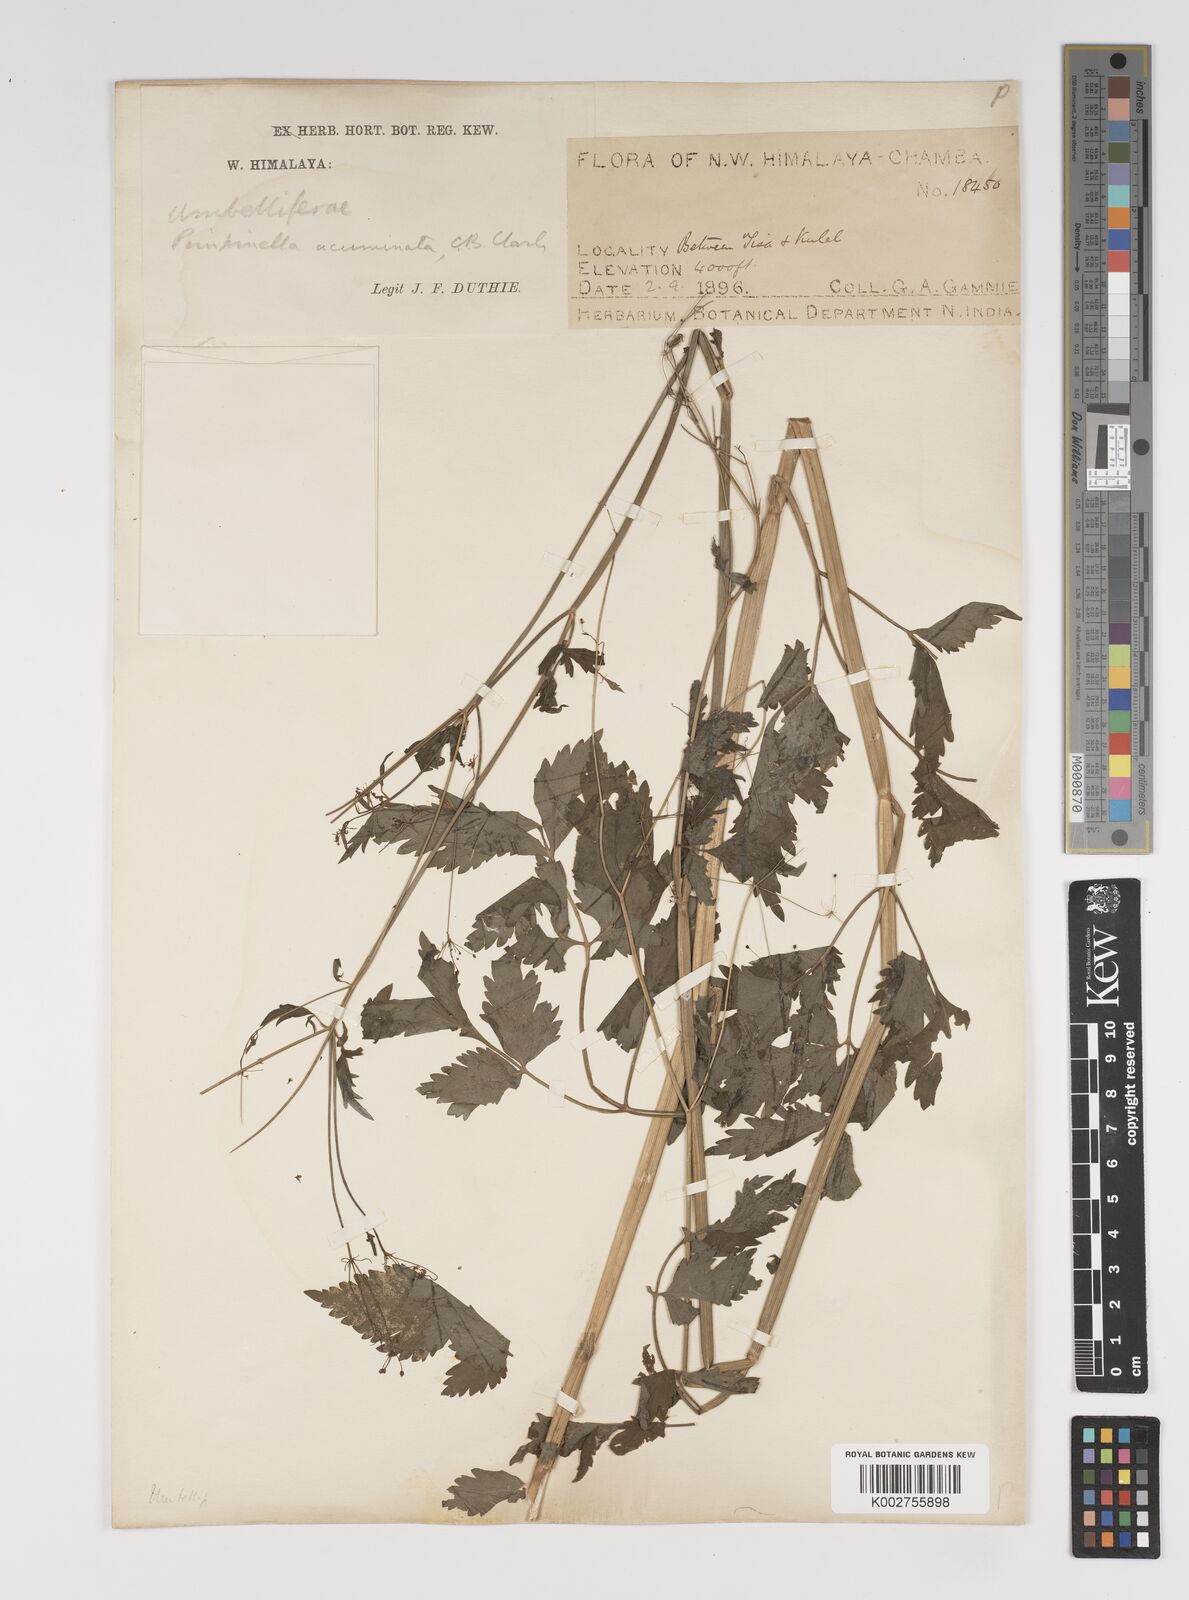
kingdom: Plantae
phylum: Tracheophyta
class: Magnoliopsida
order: Apiales
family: Apiaceae
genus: Pimpinella
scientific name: Pimpinella acuminata
